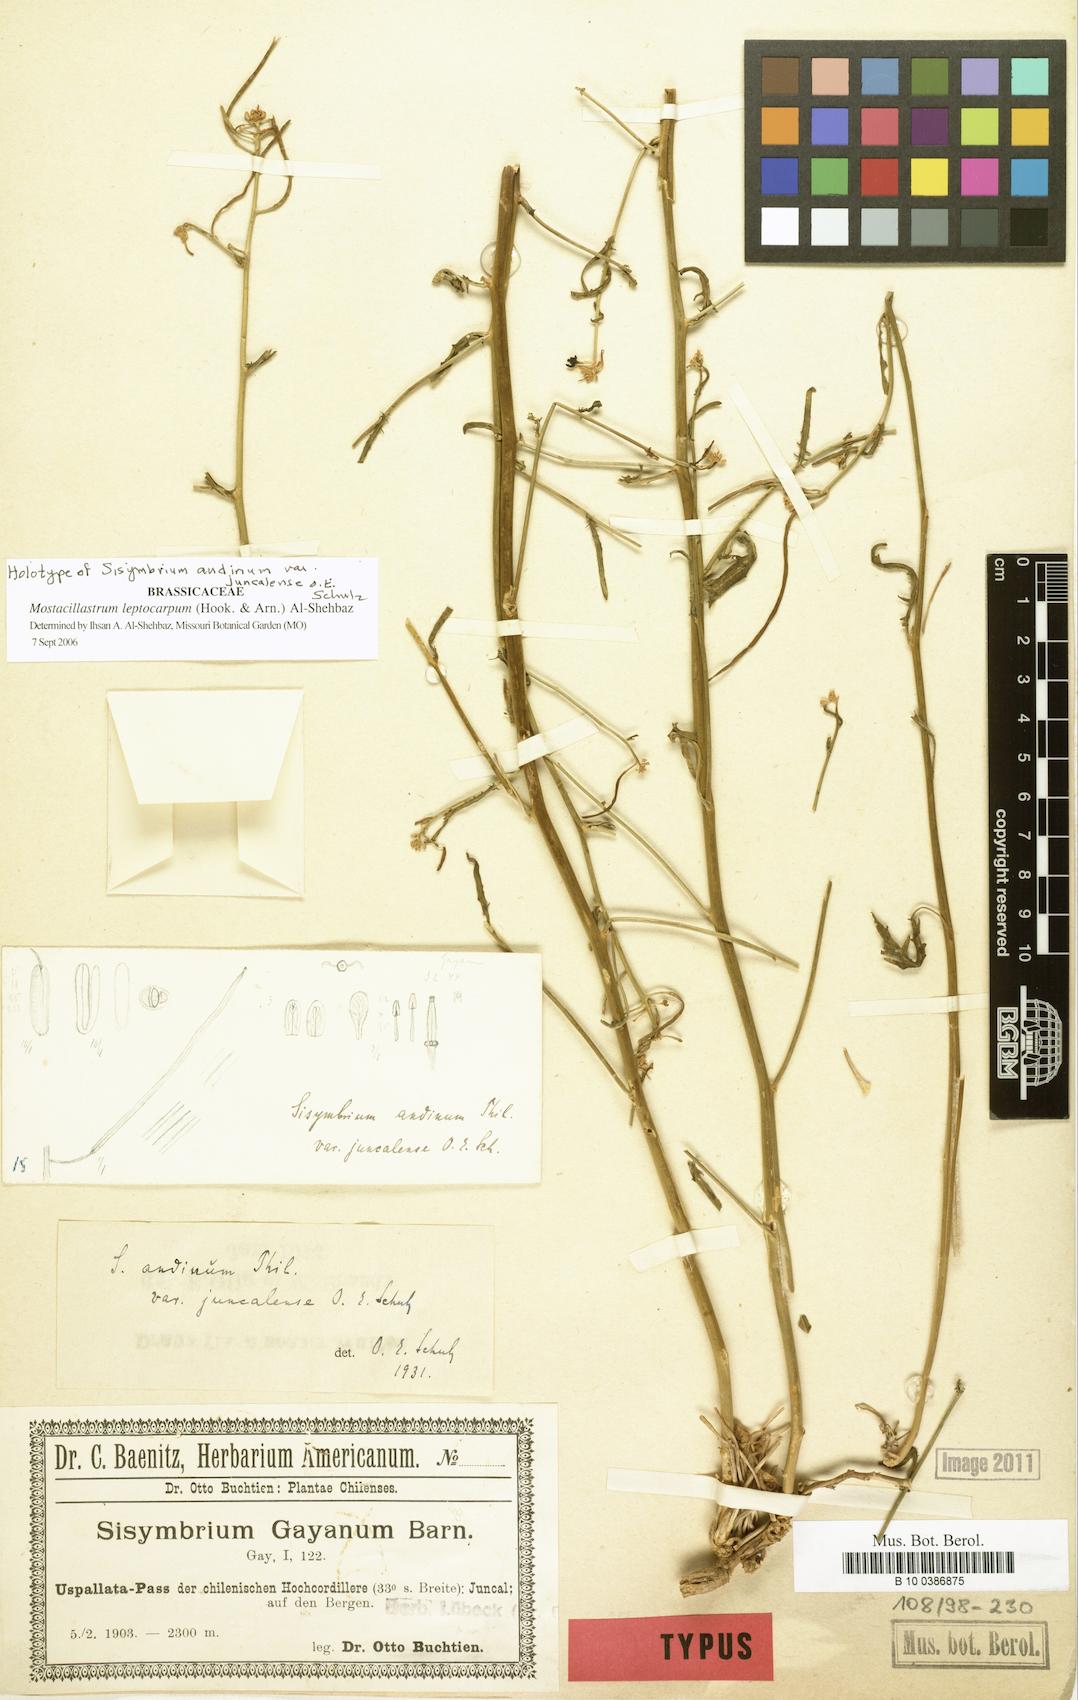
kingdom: Plantae
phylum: Tracheophyta
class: Magnoliopsida
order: Brassicales
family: Brassicaceae
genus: Mostacillastrum
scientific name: Mostacillastrum leptocarpum
